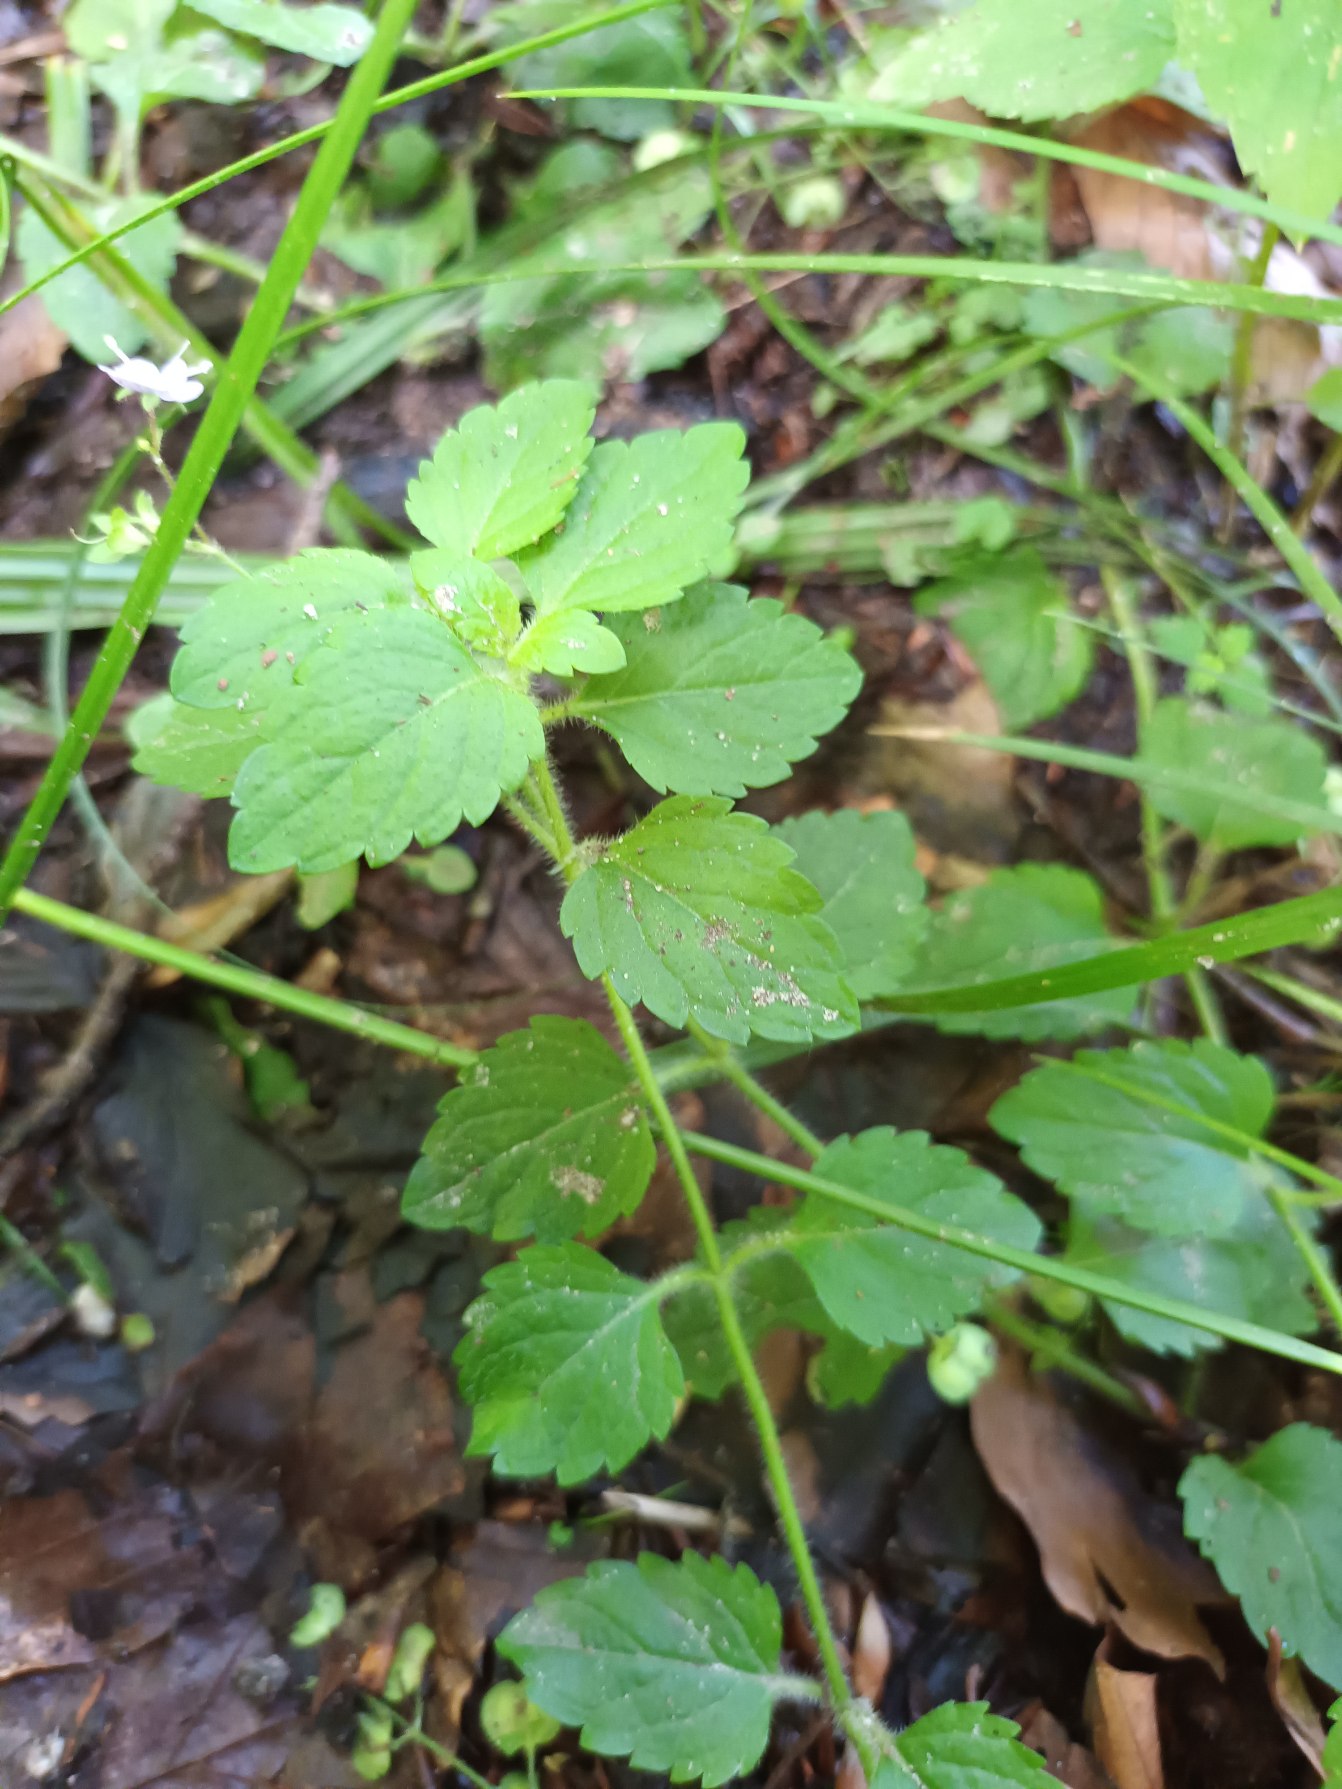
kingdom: Plantae
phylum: Tracheophyta
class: Magnoliopsida
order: Lamiales
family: Plantaginaceae
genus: Veronica
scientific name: Veronica montana
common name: Bjerg-ærenpris
